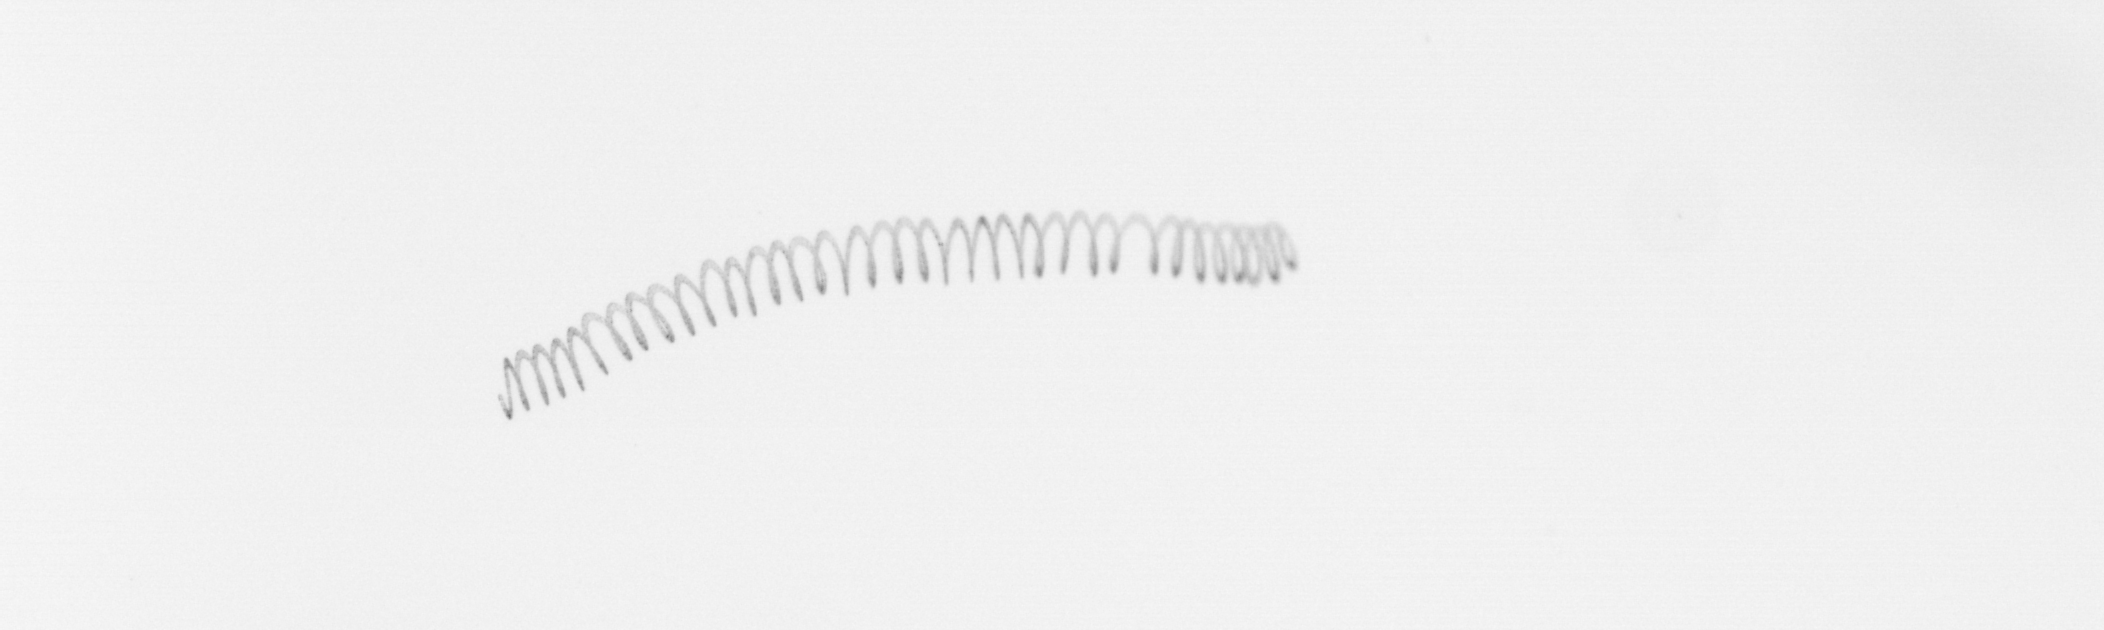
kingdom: Chromista
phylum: Ochrophyta
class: Bacillariophyceae
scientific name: Bacillariophyceae
